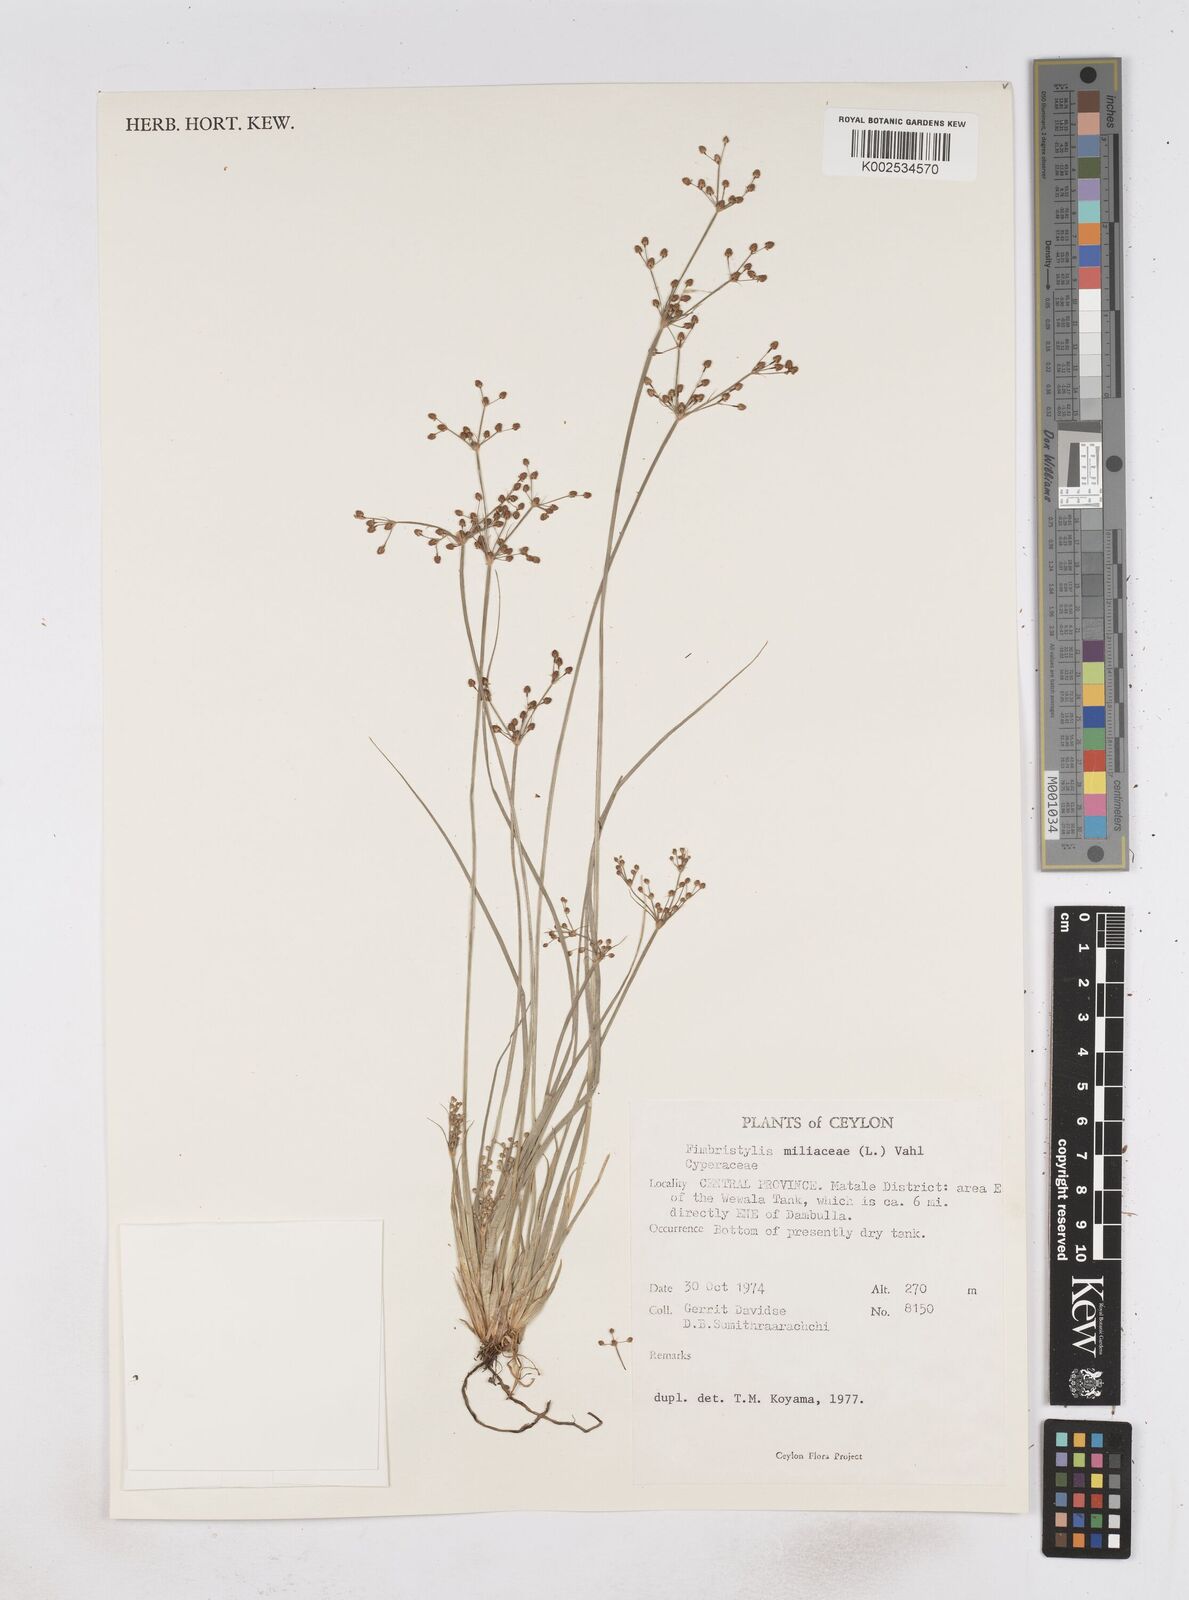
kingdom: Plantae
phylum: Tracheophyta
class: Liliopsida
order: Poales
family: Cyperaceae
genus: Fimbristylis
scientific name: Fimbristylis quinquangularis
